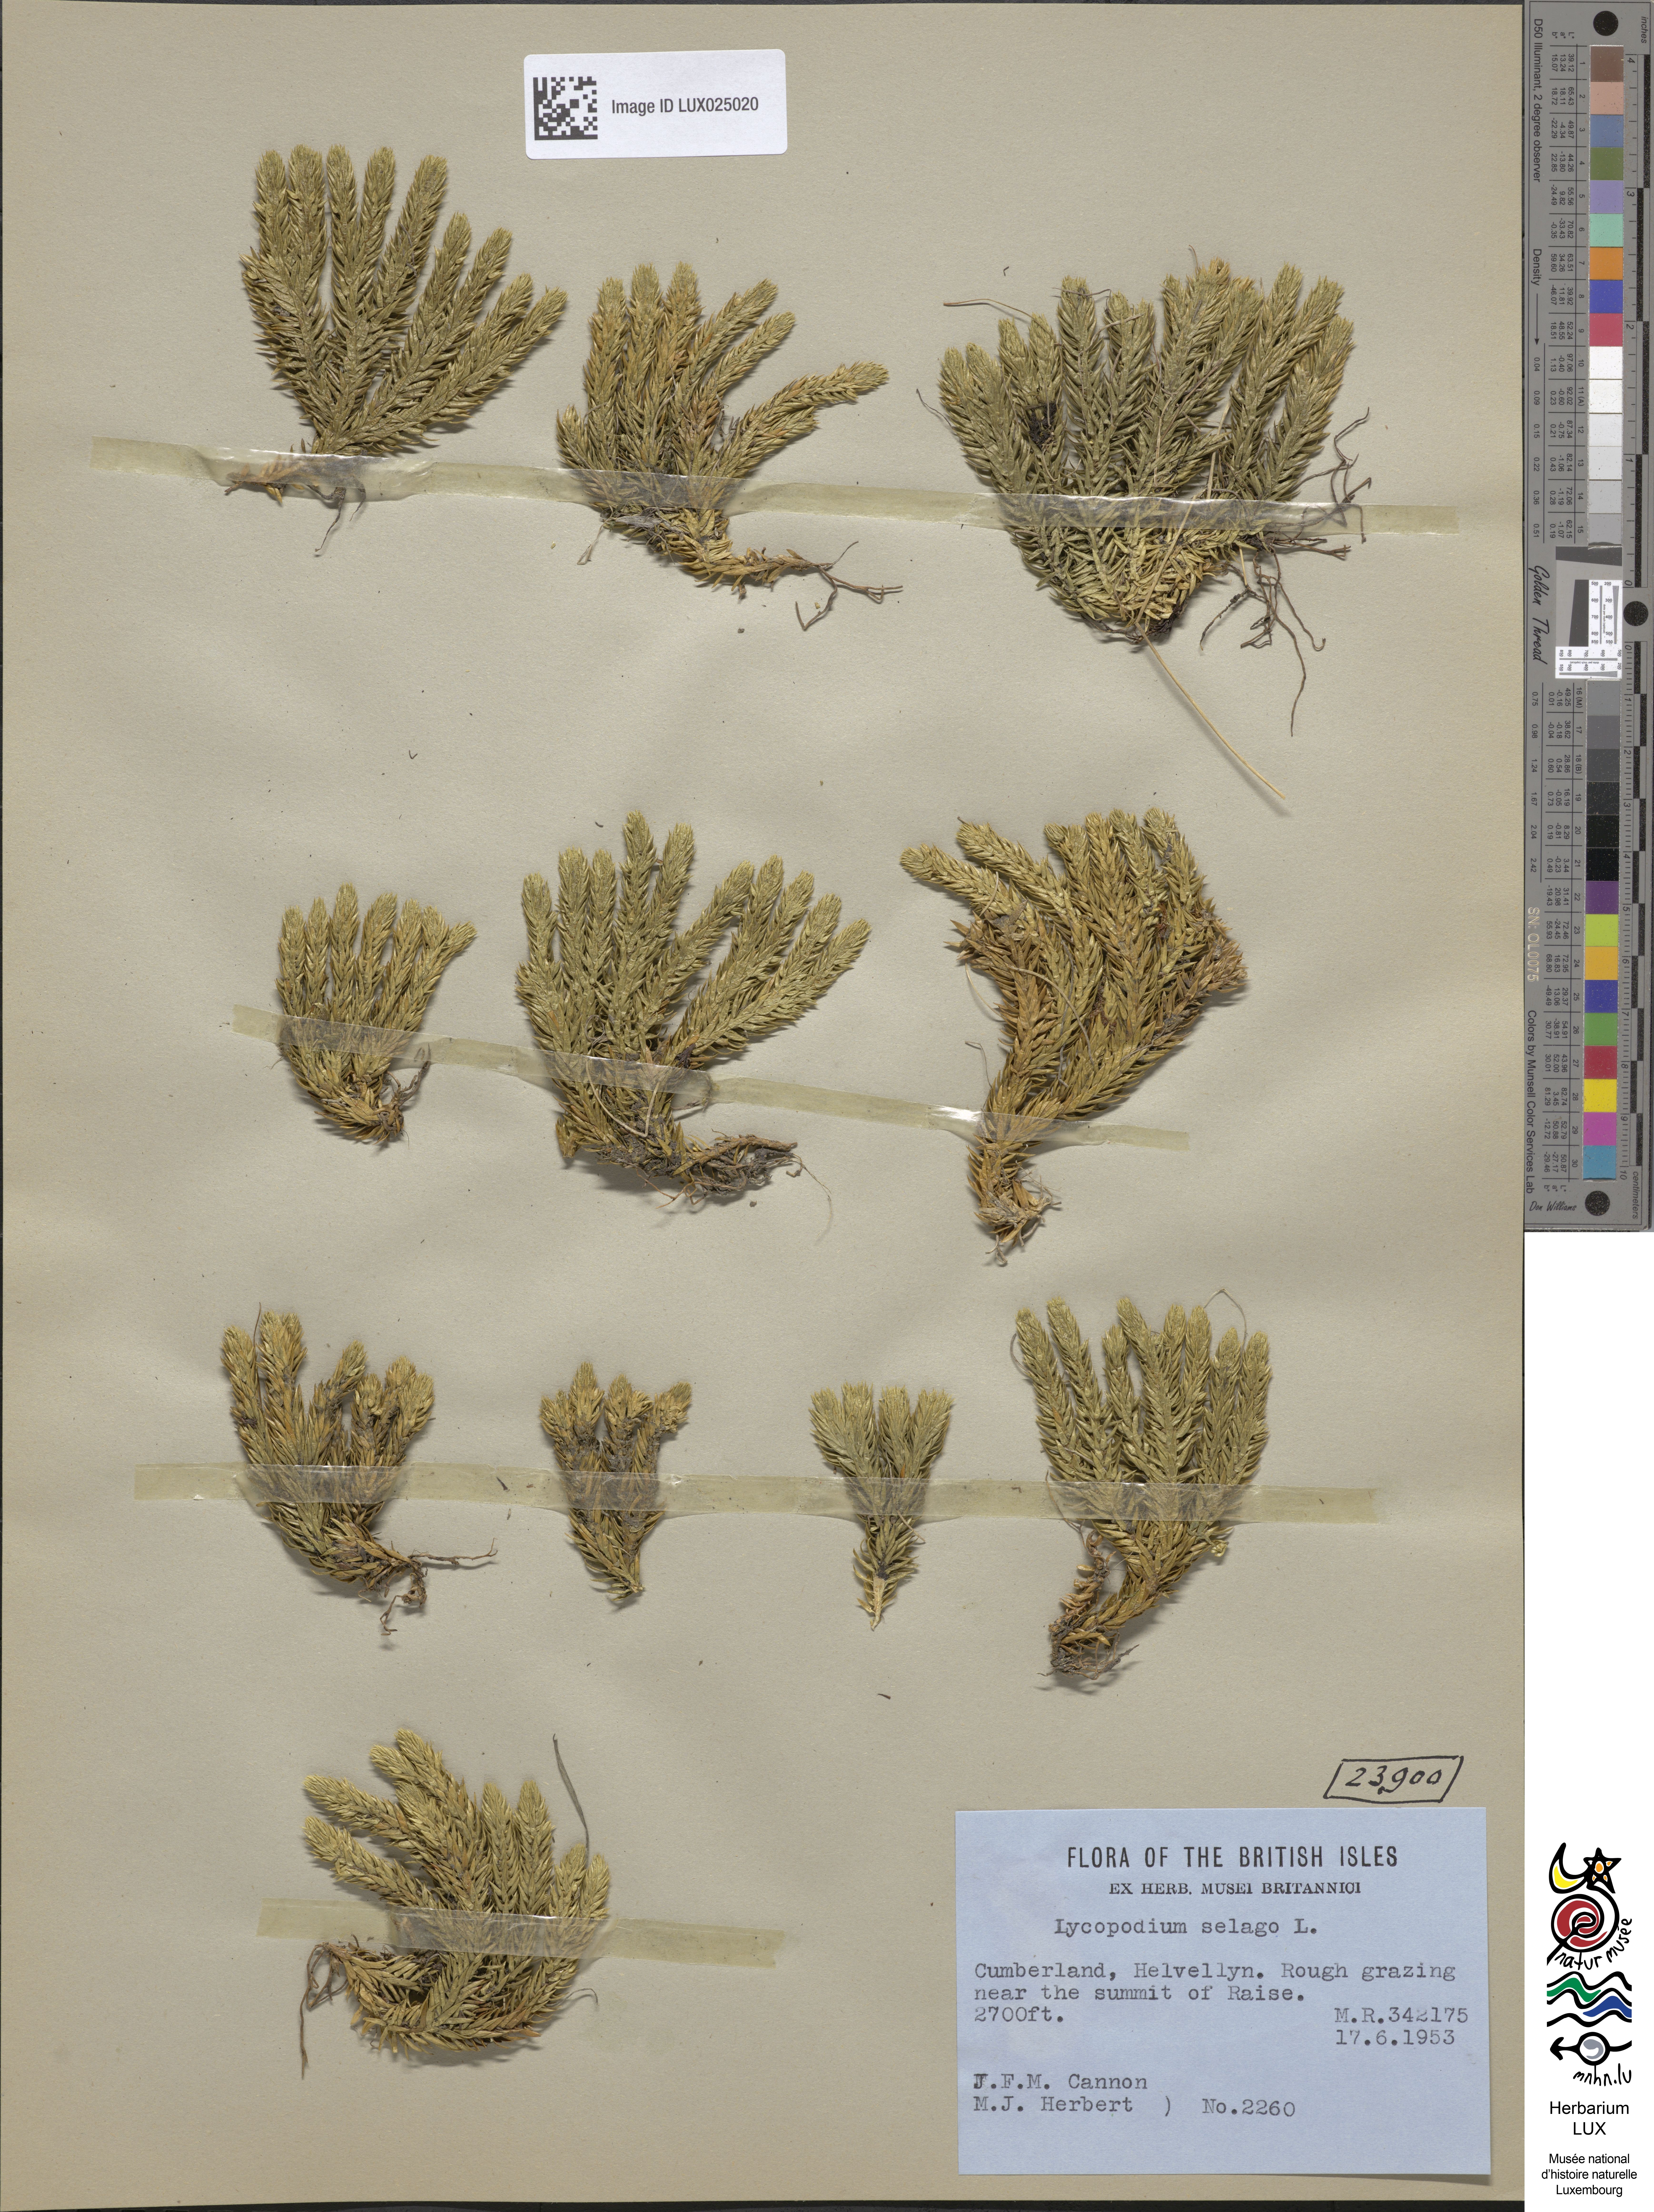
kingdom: Plantae
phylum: Tracheophyta
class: Lycopodiopsida
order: Lycopodiales
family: Lycopodiaceae
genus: Huperzia
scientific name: Huperzia selago
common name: Northern firmoss
